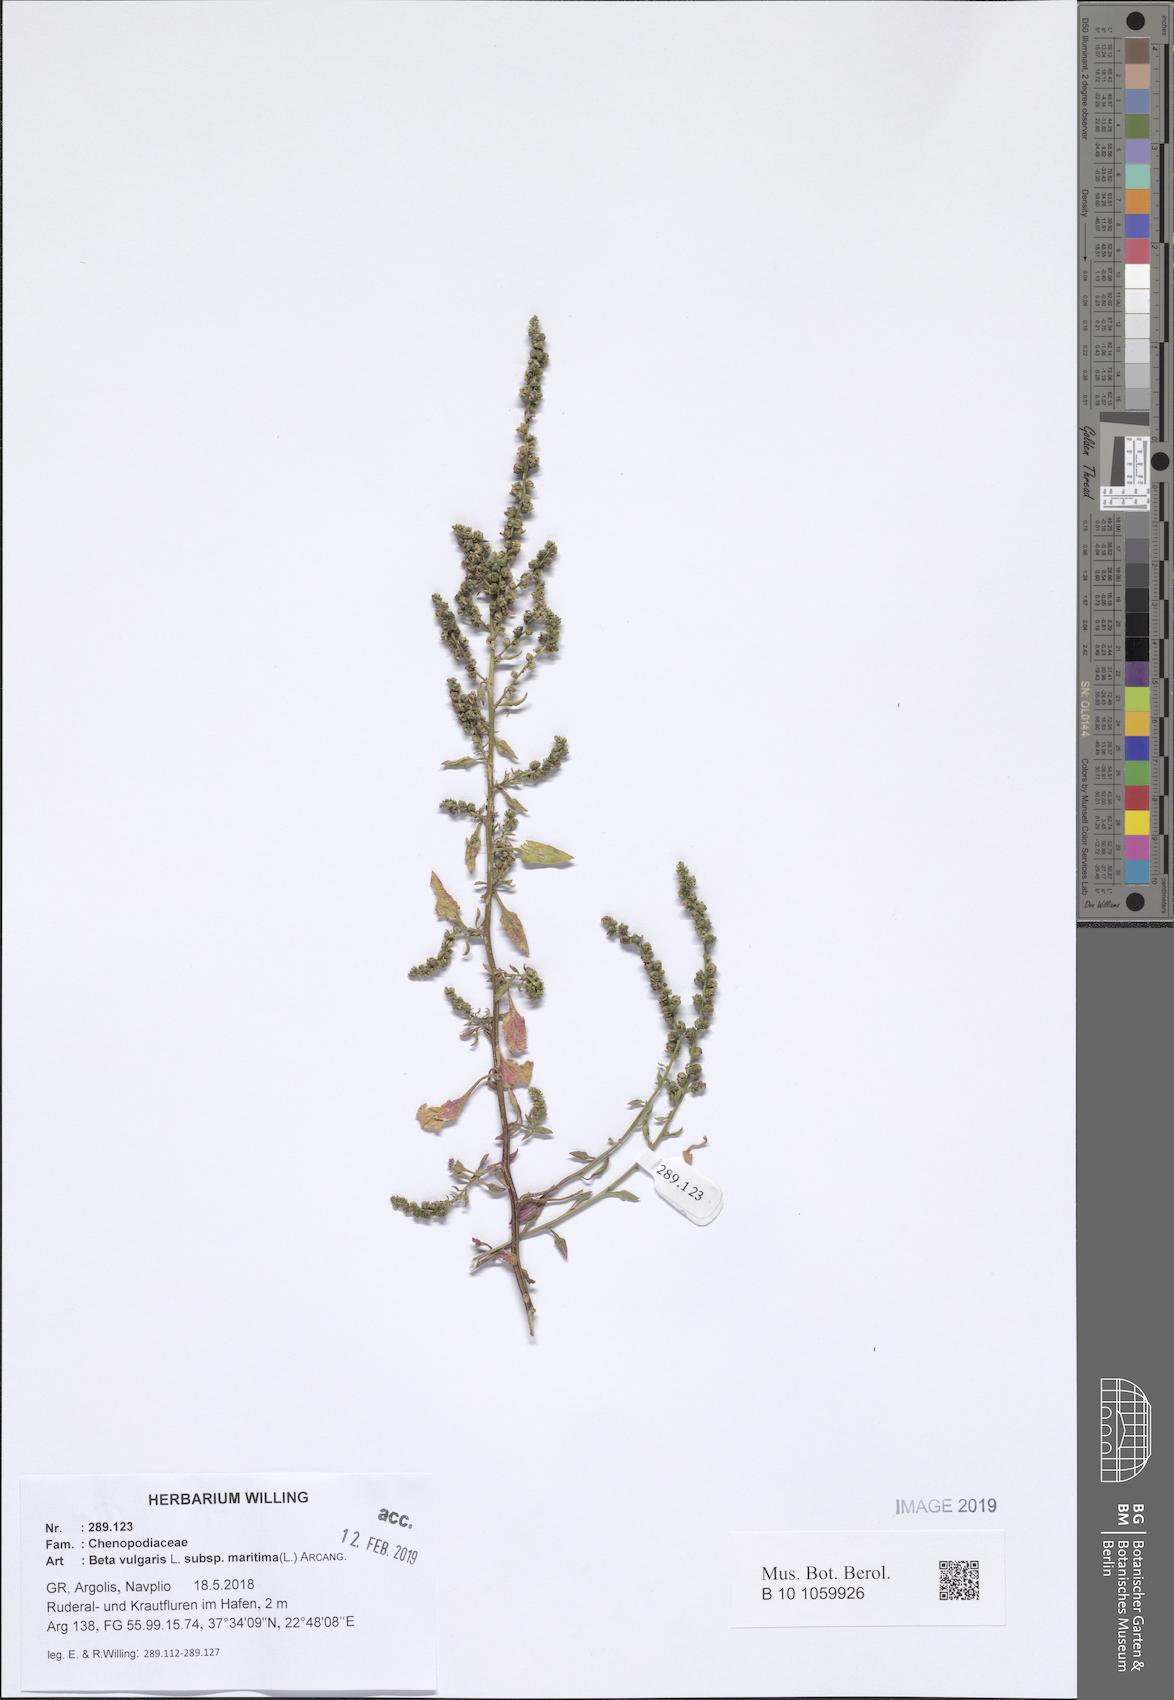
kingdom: Plantae
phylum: Tracheophyta
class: Magnoliopsida
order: Caryophyllales
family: Amaranthaceae
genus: Beta
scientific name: Beta maritima
